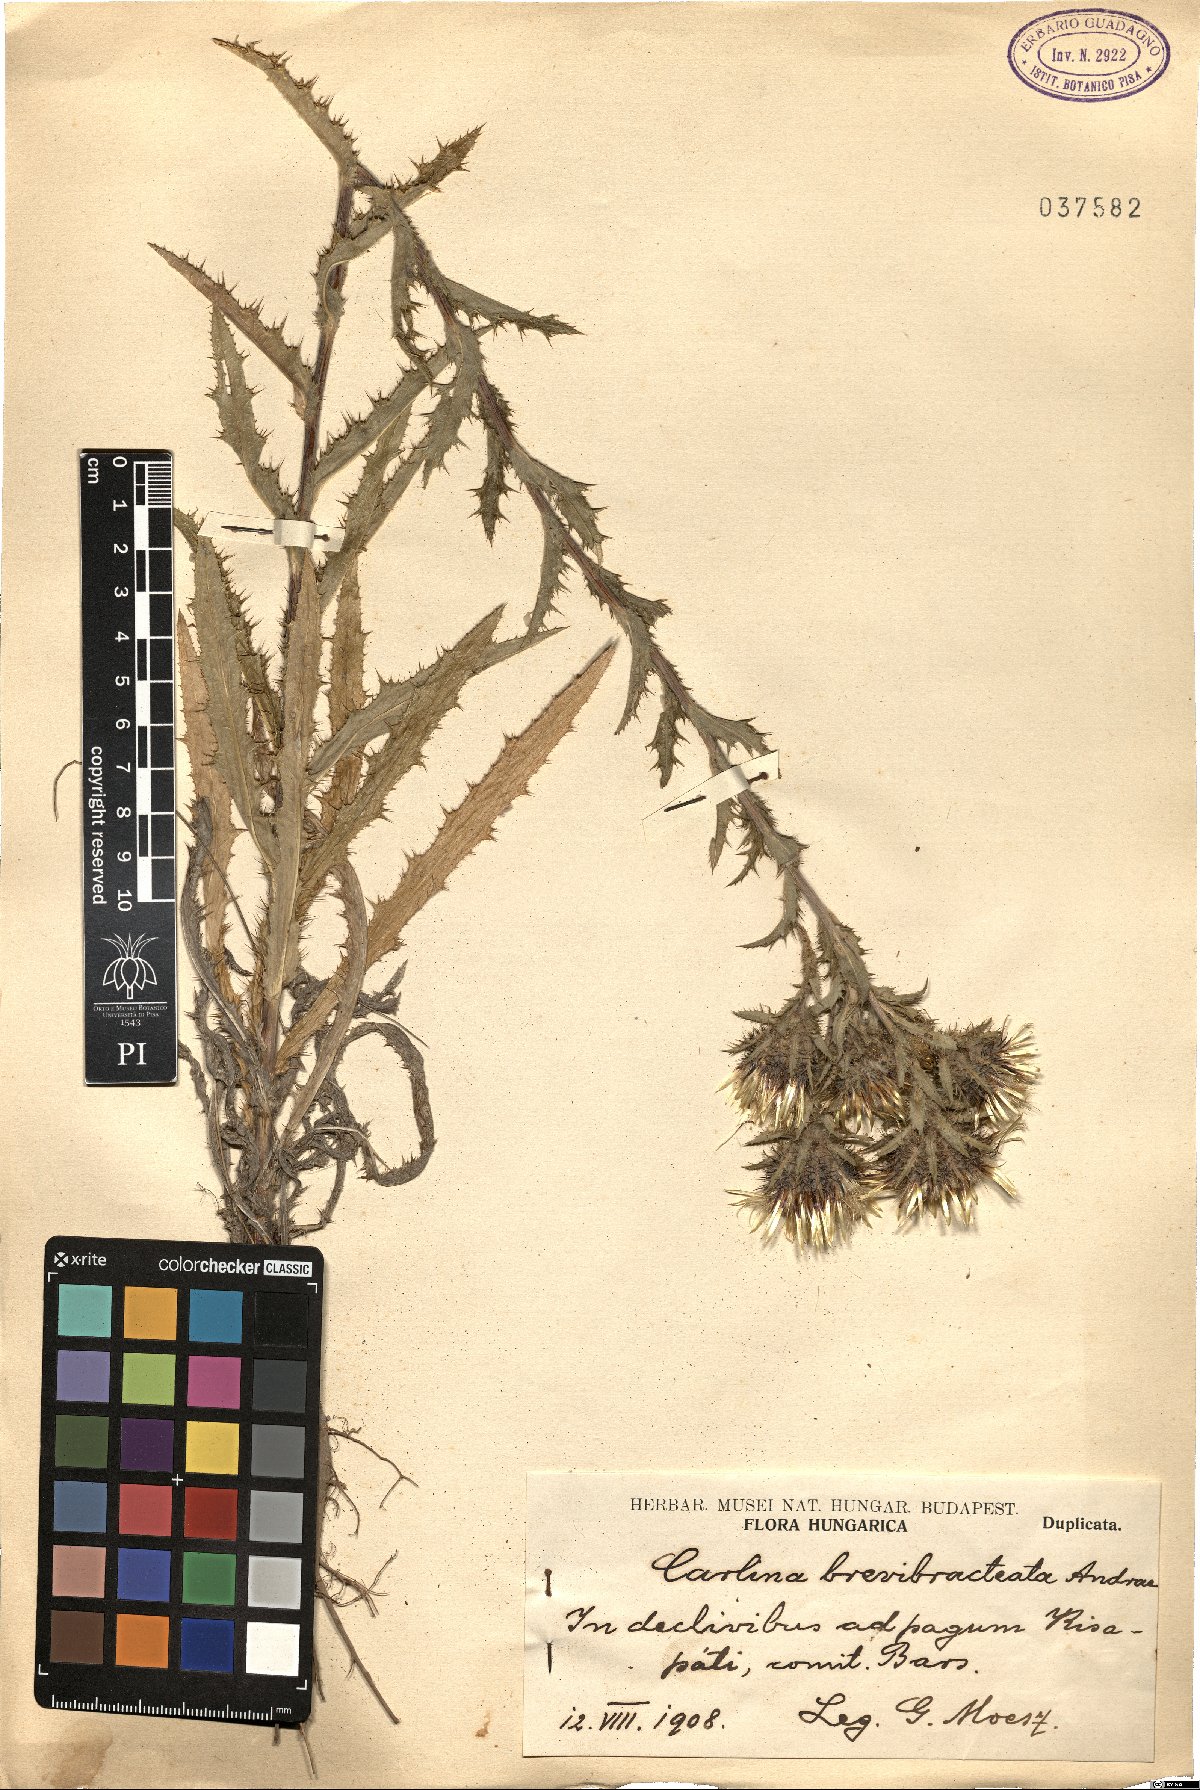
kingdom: Plantae
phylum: Tracheophyta
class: Magnoliopsida
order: Asterales
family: Asteraceae
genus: Carlina
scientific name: Carlina biebersteinii
